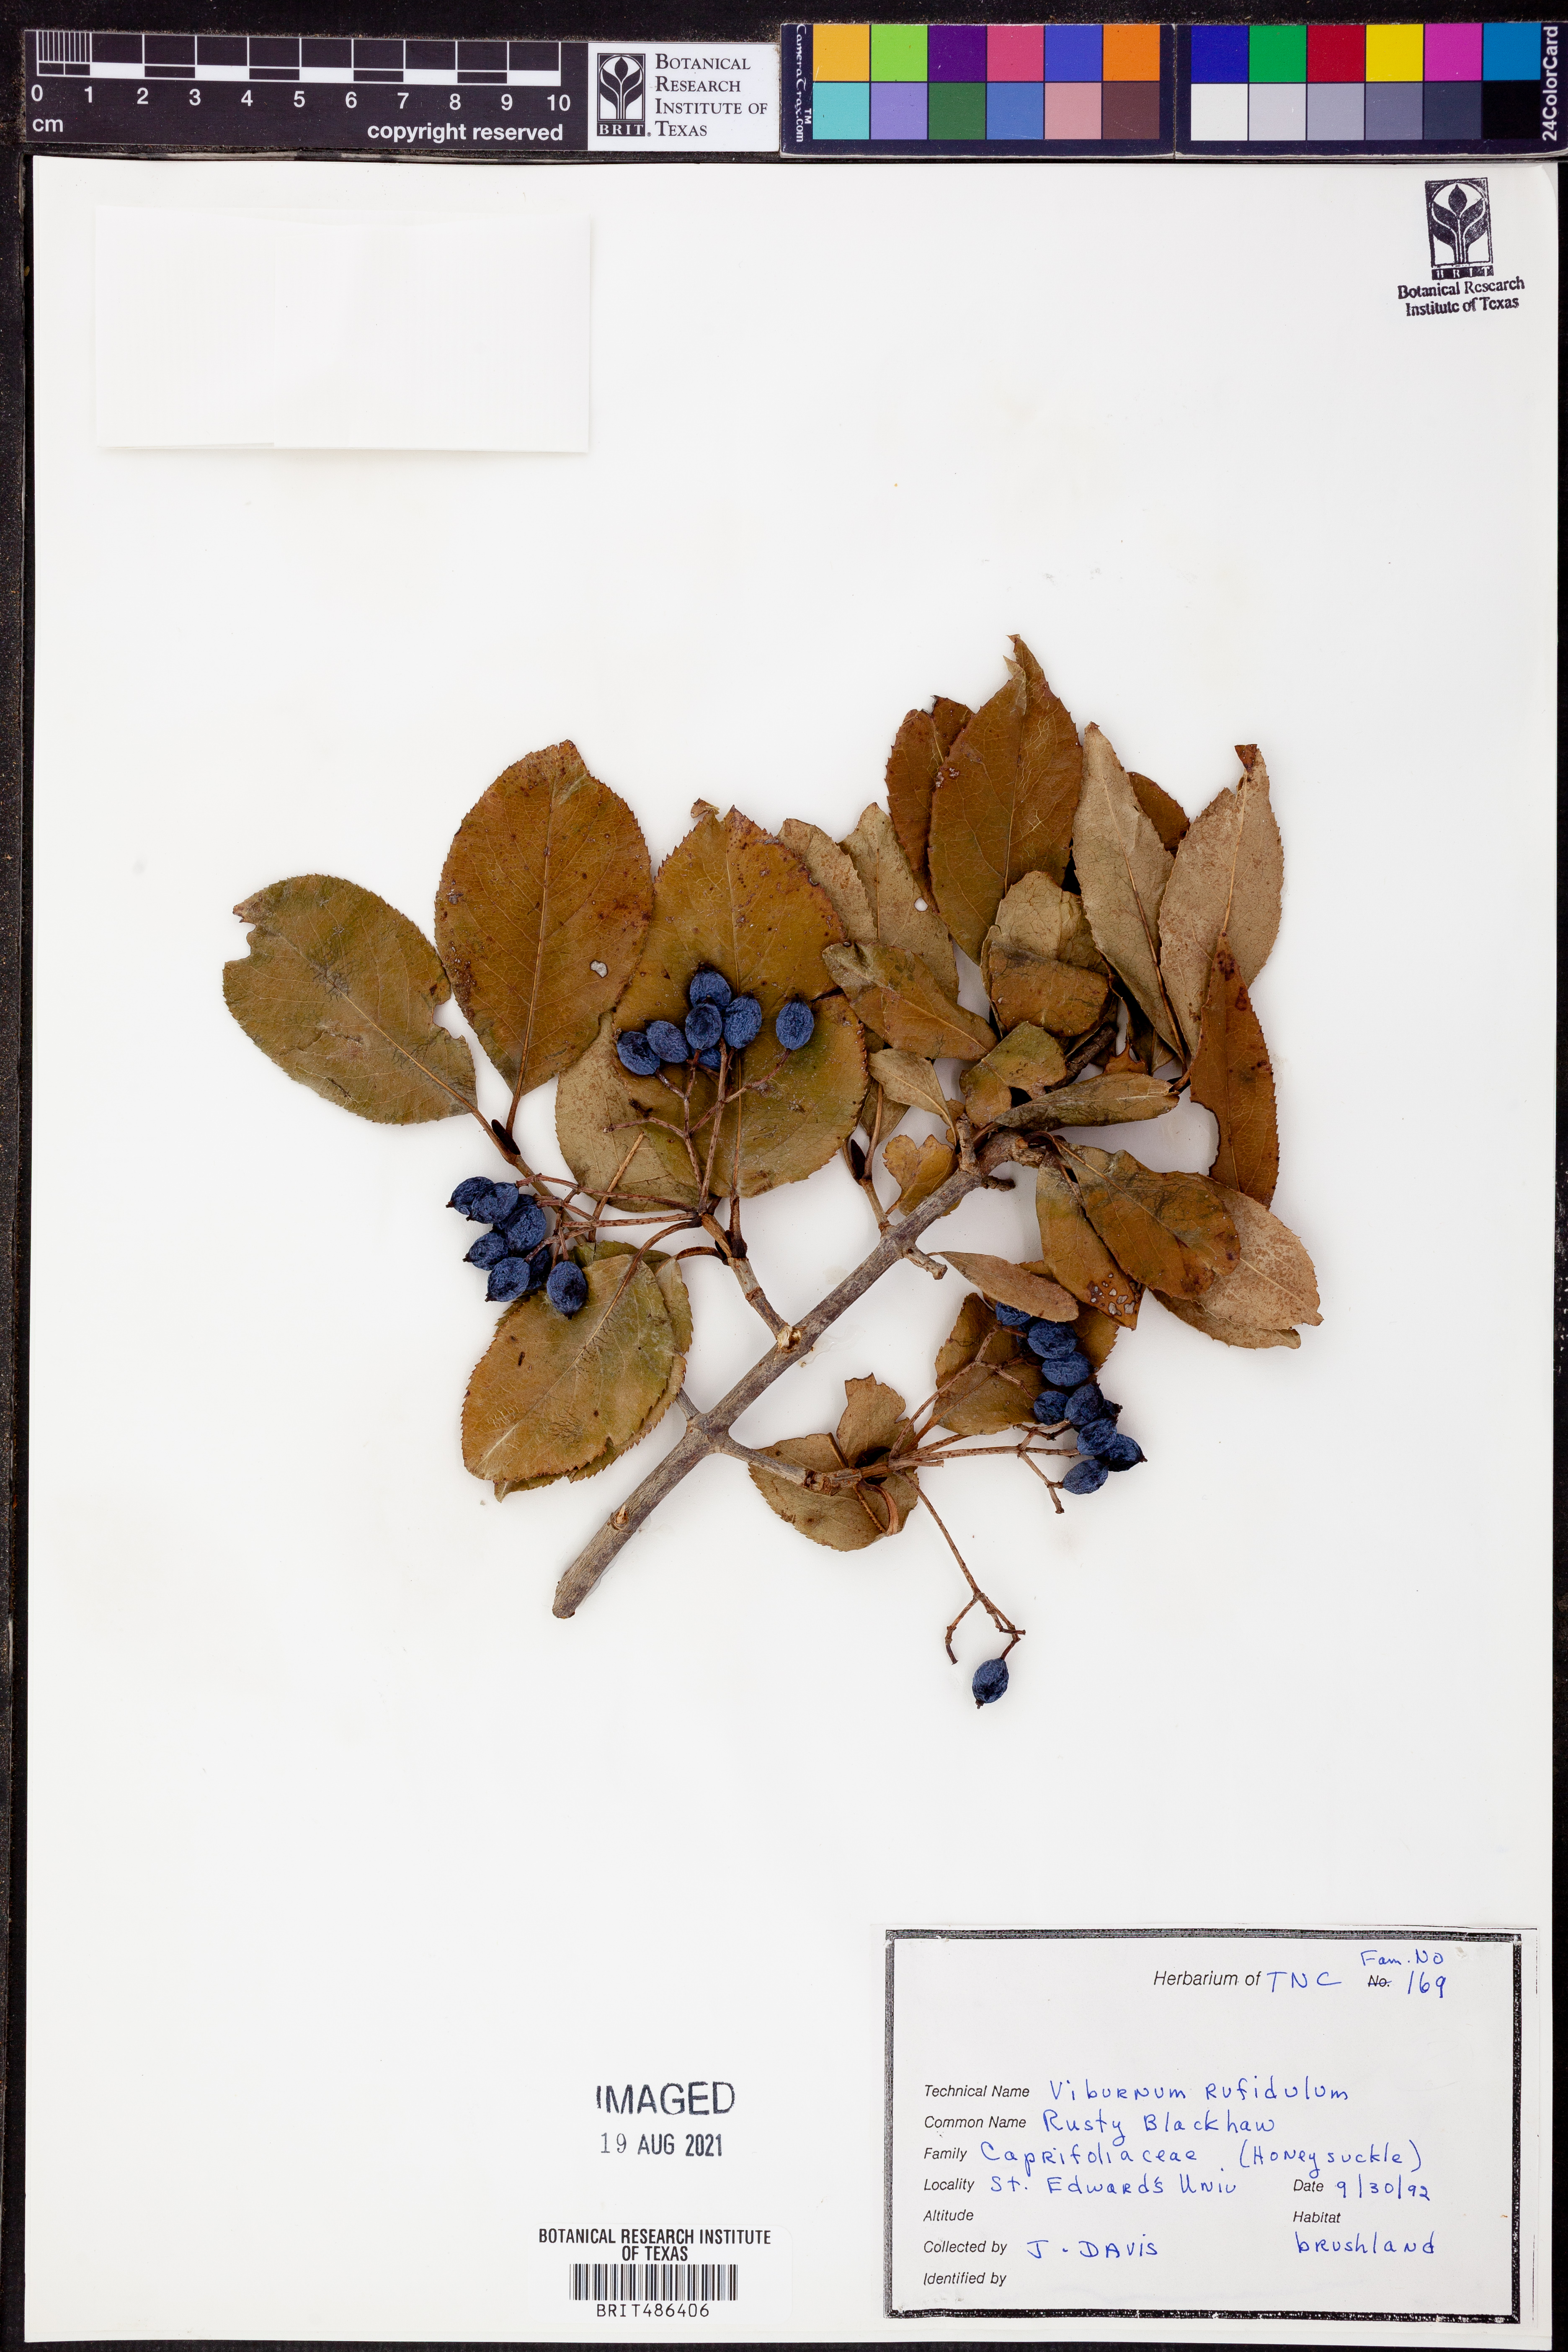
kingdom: Plantae
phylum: Tracheophyta
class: Magnoliopsida
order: Dipsacales
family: Viburnaceae
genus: Viburnum
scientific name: Viburnum rufidulum
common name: Blue haw
